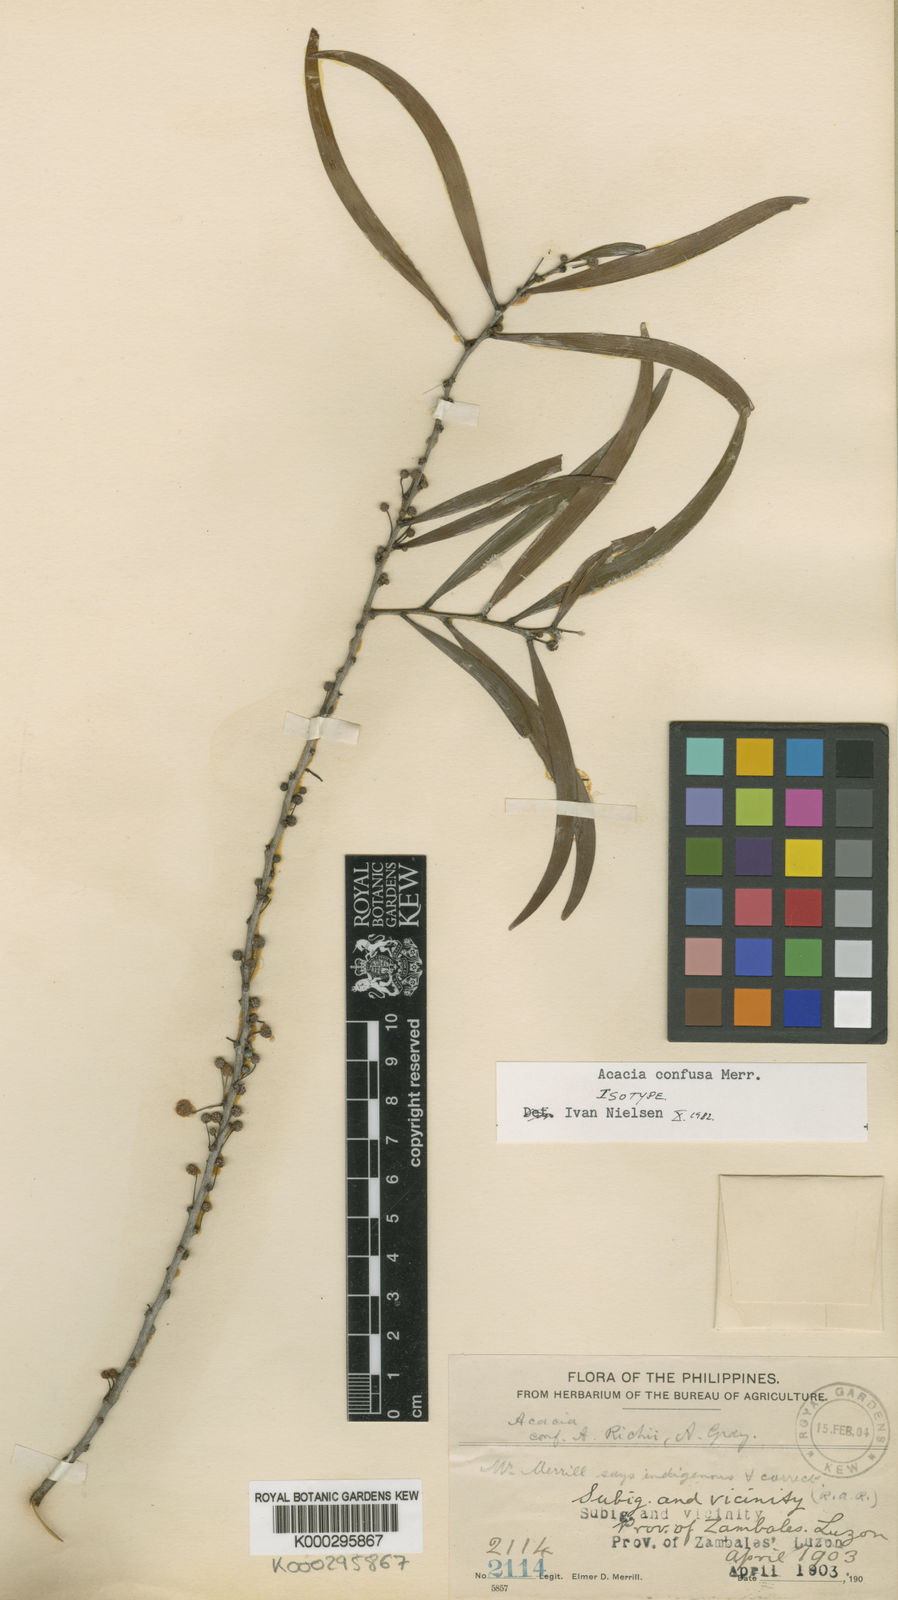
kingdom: Plantae
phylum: Tracheophyta
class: Magnoliopsida
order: Fabales
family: Fabaceae
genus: Acacia
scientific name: Acacia confusa
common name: Formosan koa
